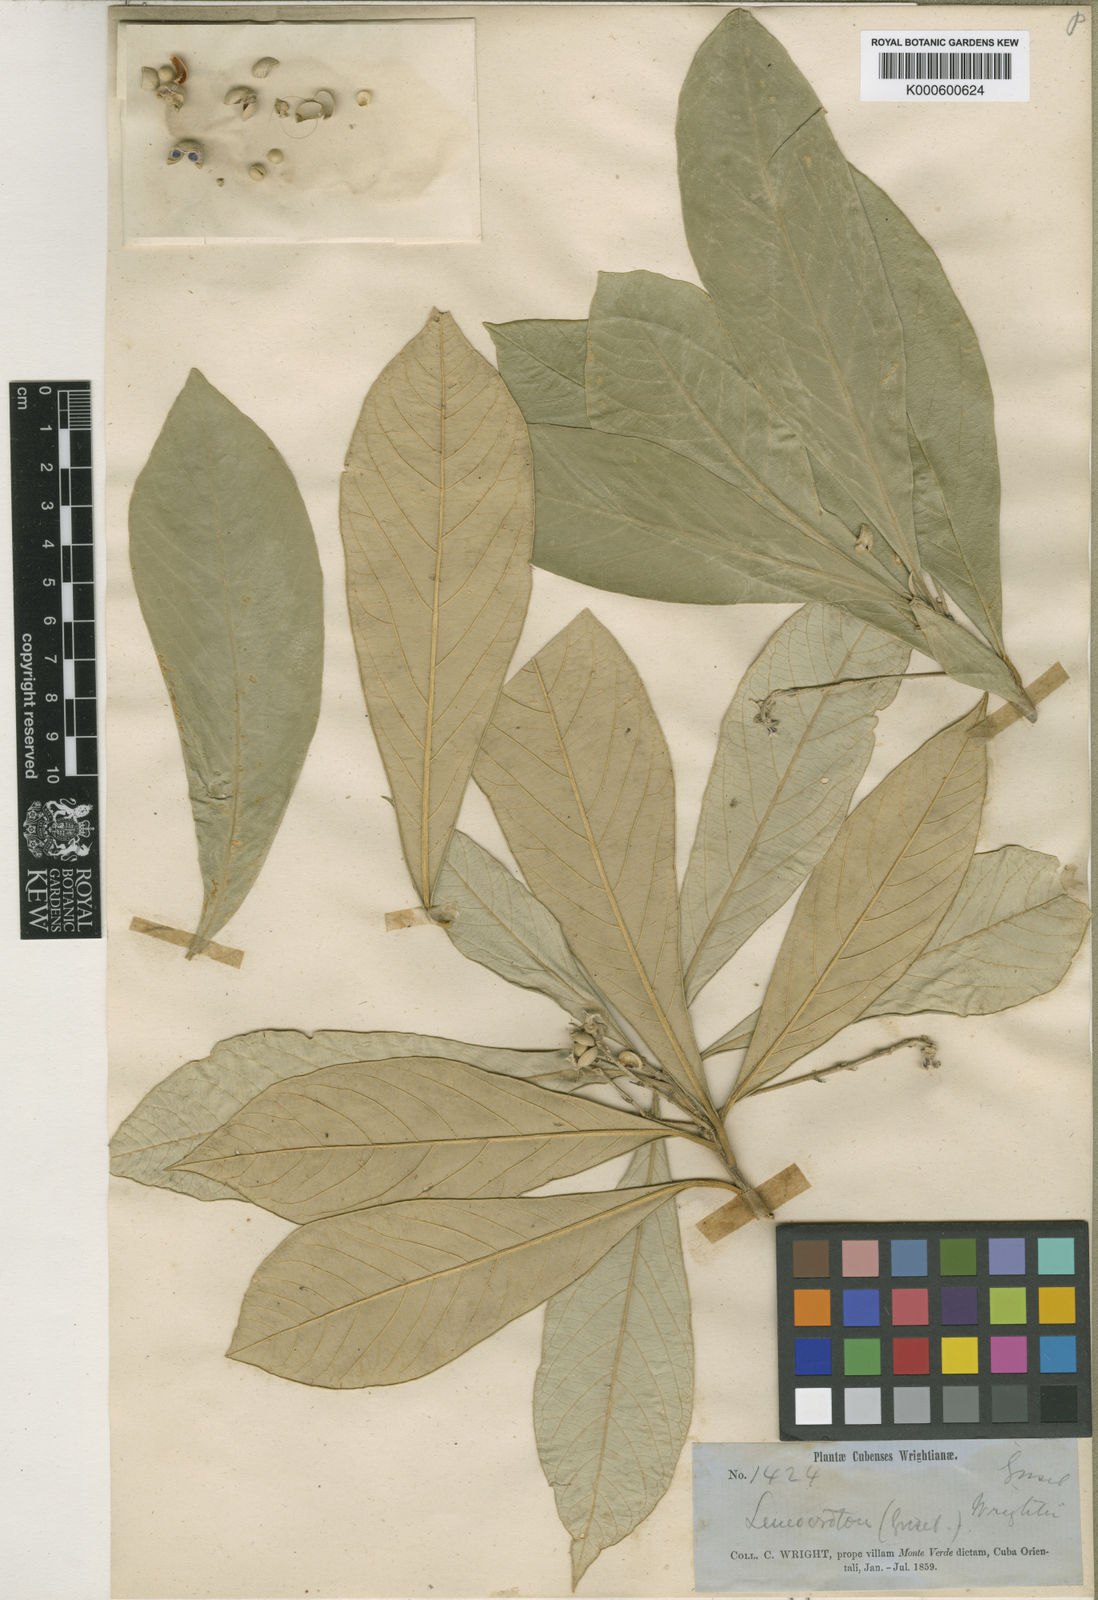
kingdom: Plantae
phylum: Tracheophyta
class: Magnoliopsida
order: Malpighiales
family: Euphorbiaceae
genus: Leucocroton
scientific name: Leucocroton wrightii
